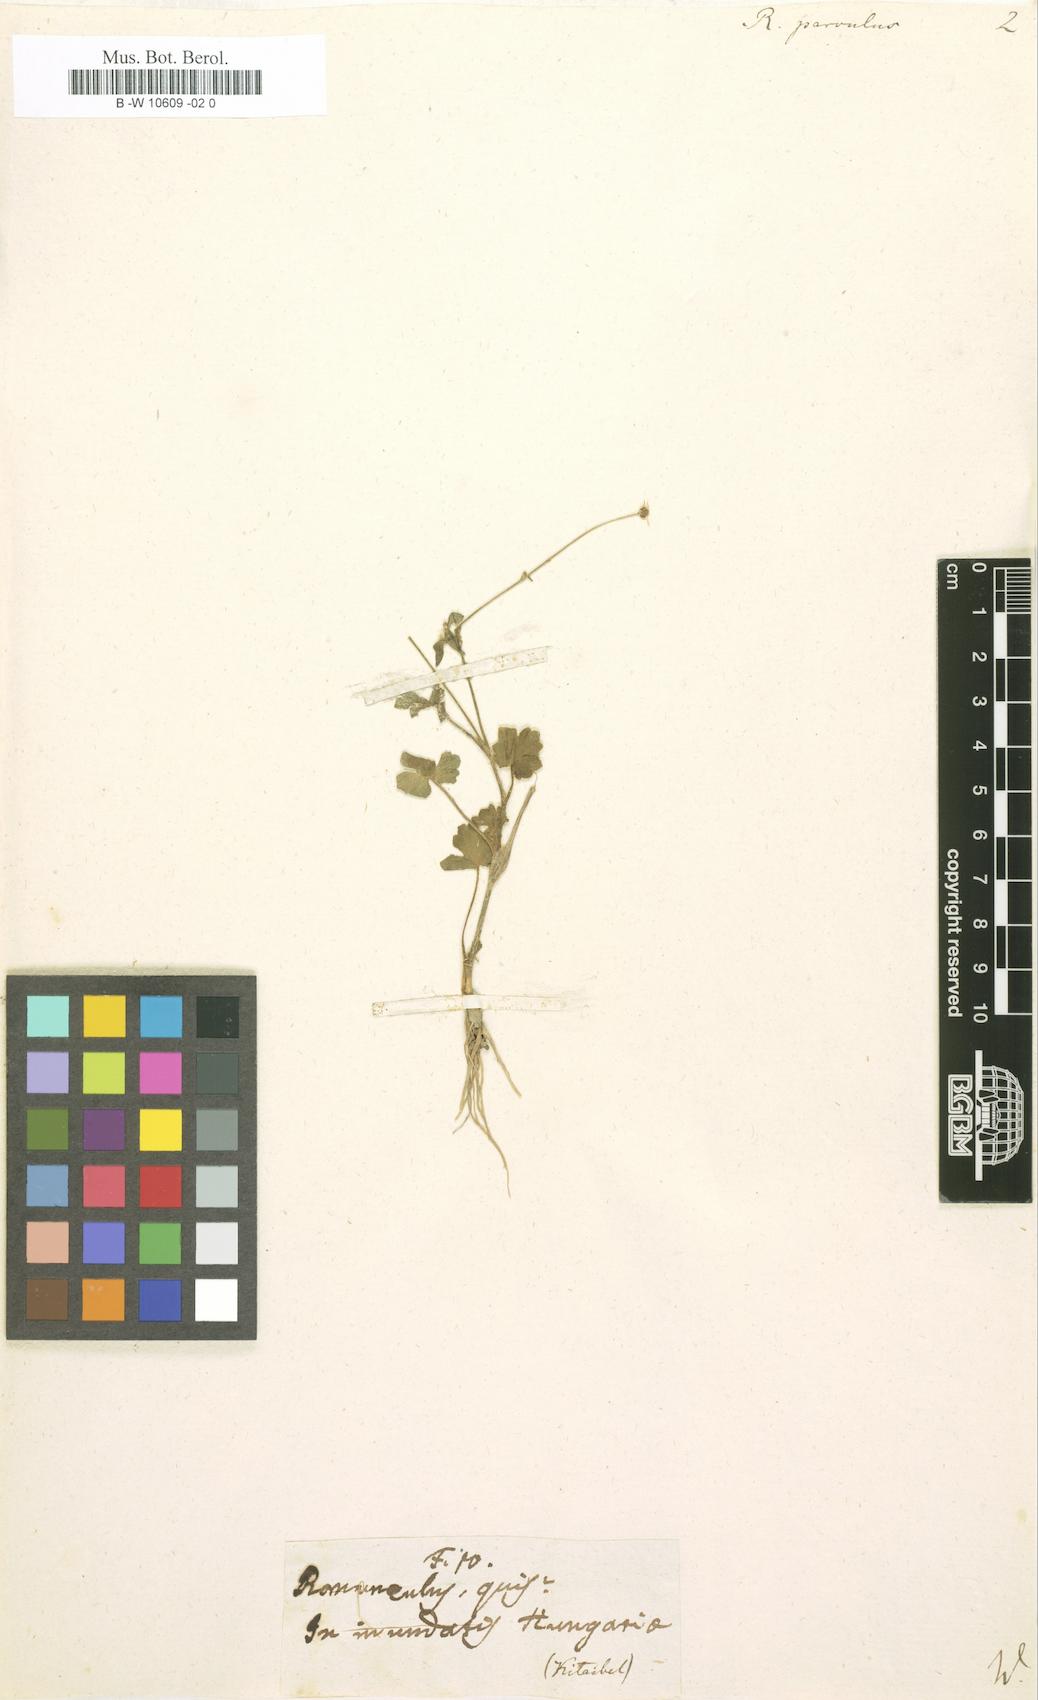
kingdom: Plantae
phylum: Tracheophyta
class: Magnoliopsida
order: Ranunculales
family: Ranunculaceae
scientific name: Ranunculaceae
